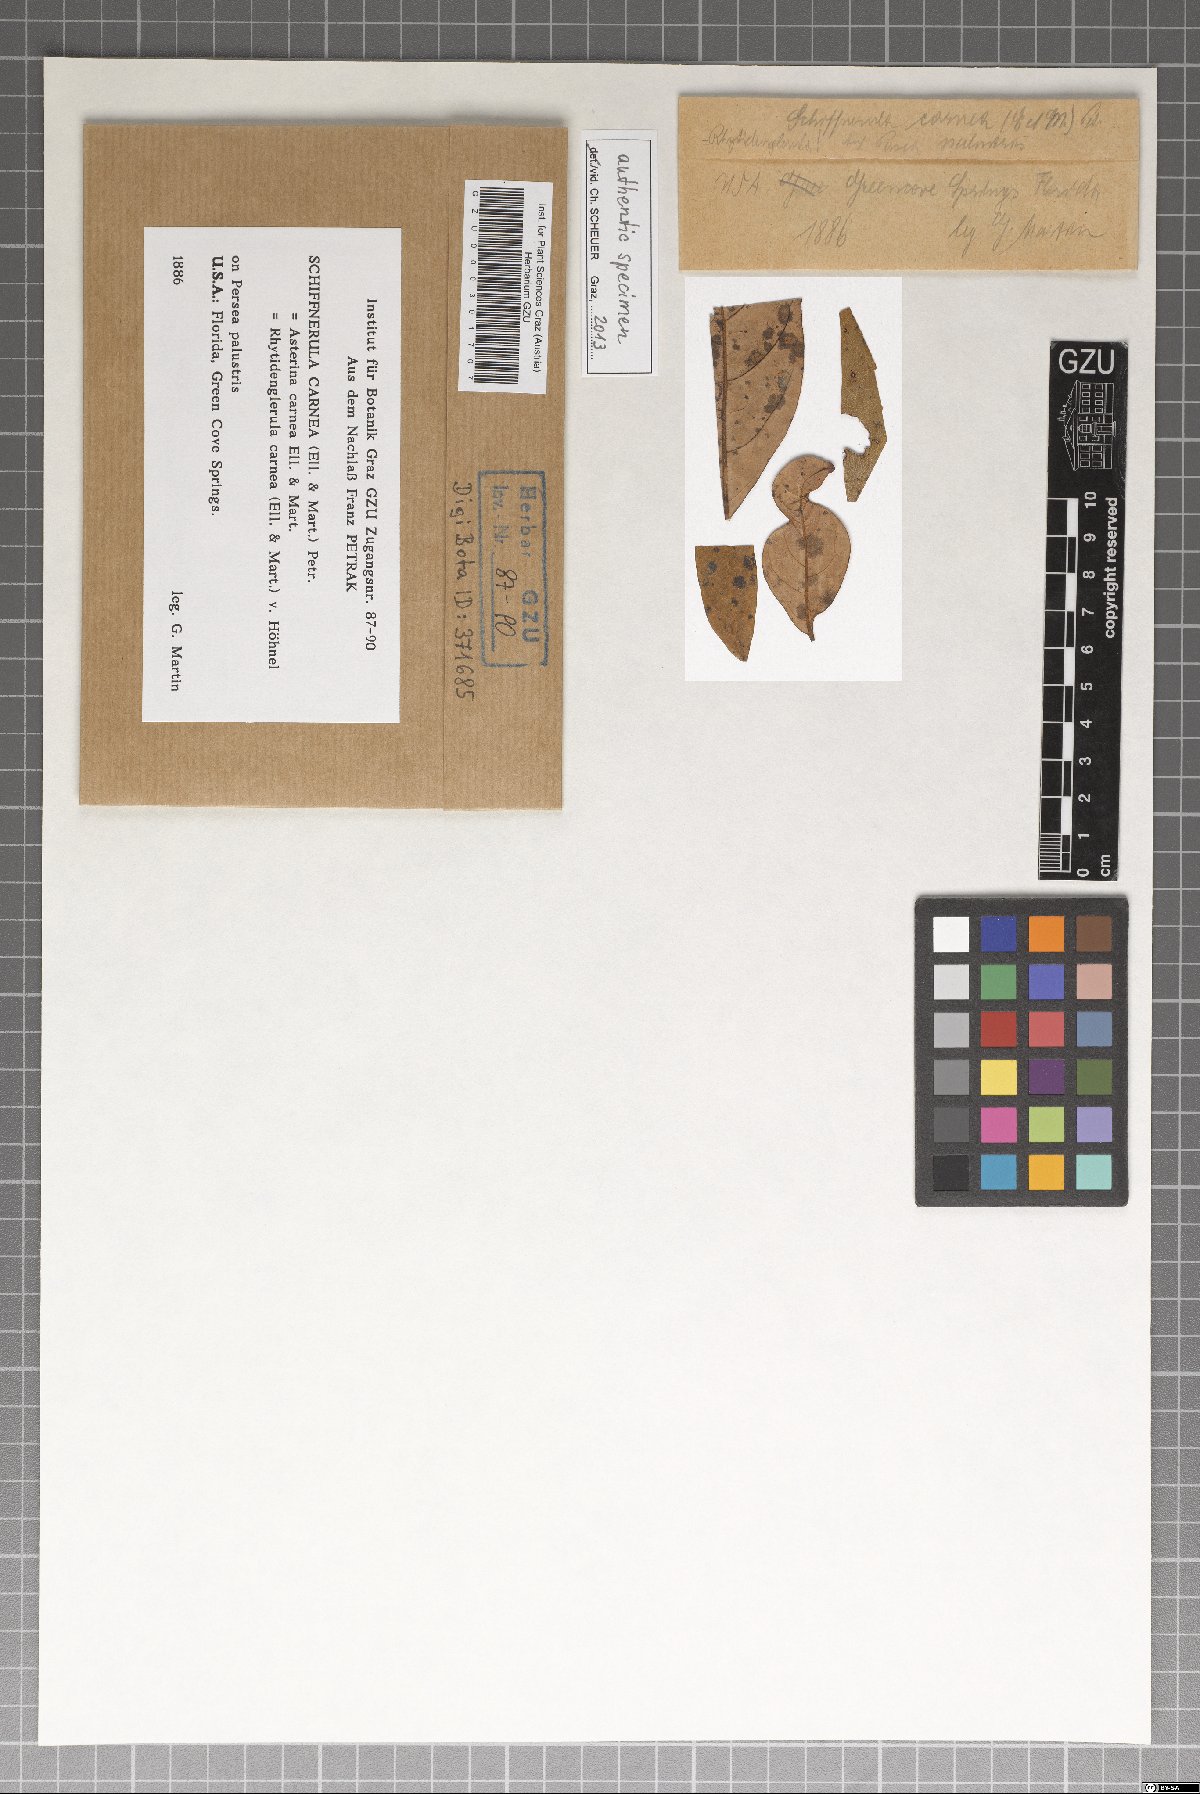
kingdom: Fungi
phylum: Ascomycota
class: Dothideomycetes
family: Englerulaceae
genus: Rhytidenglerula
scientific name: Rhytidenglerula carnea
